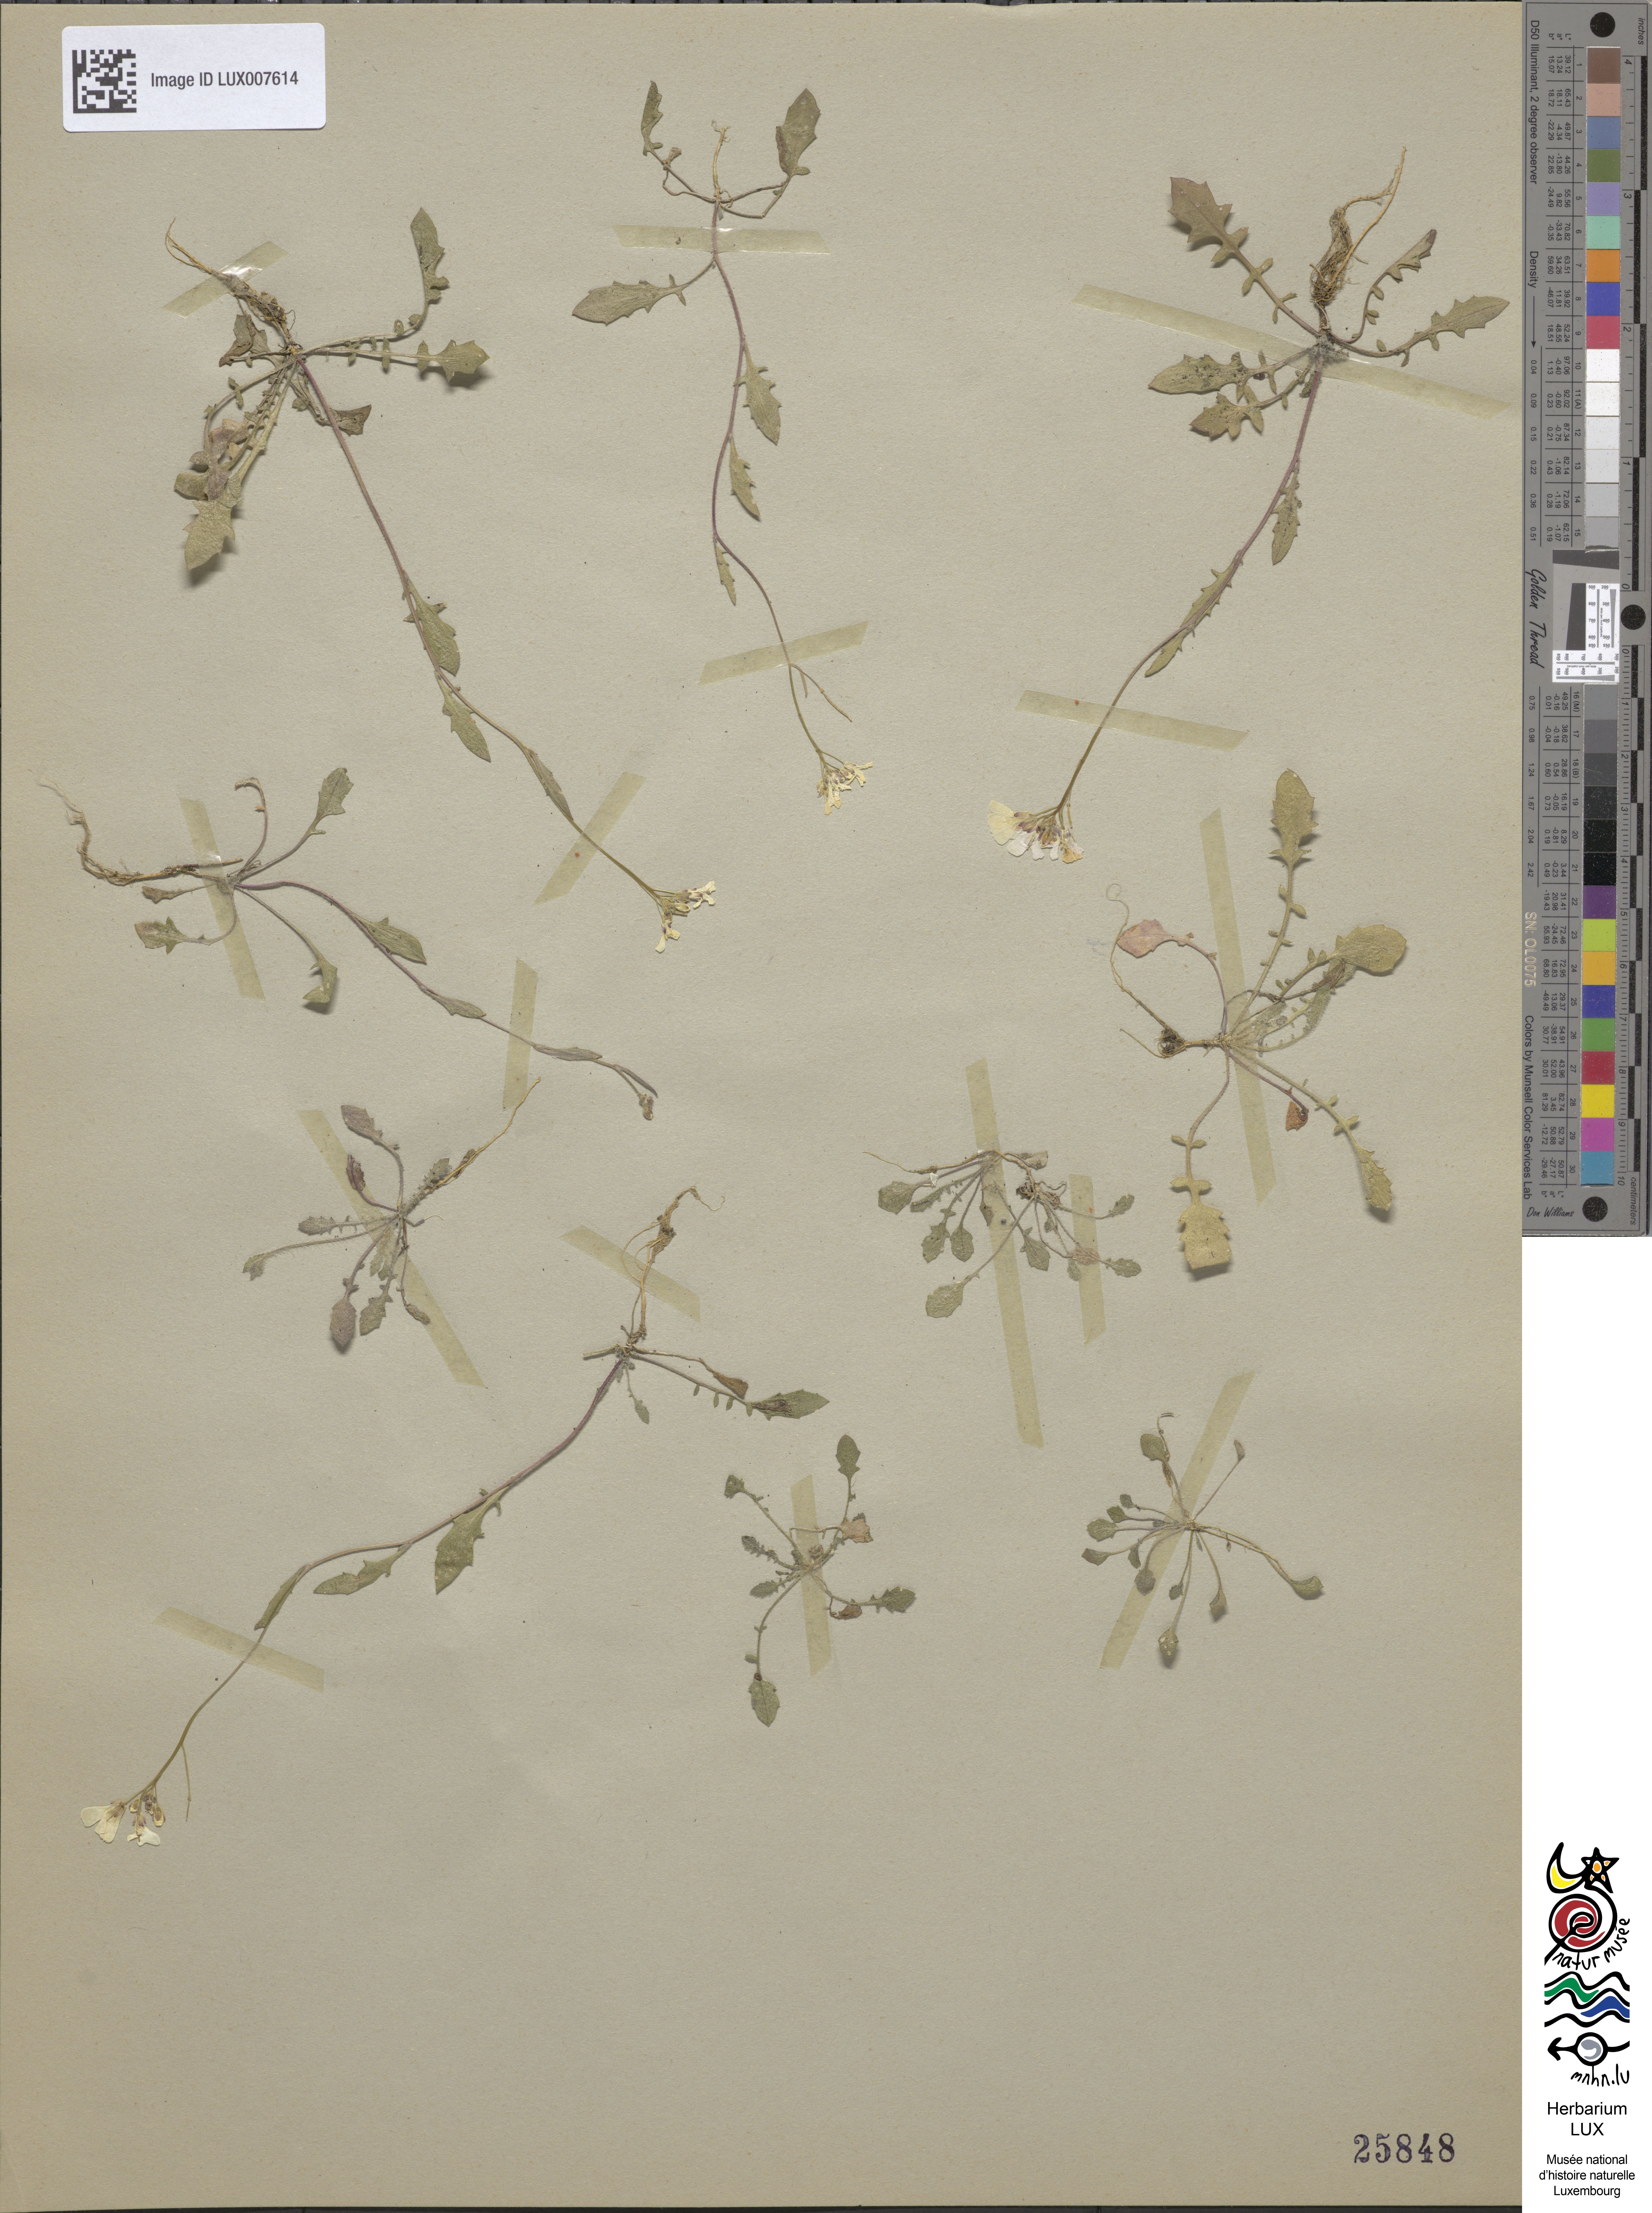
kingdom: Plantae
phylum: Tracheophyta
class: Magnoliopsida
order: Brassicales
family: Brassicaceae
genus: Arabidopsis
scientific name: Arabidopsis arenosa
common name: Sand rock-cress
